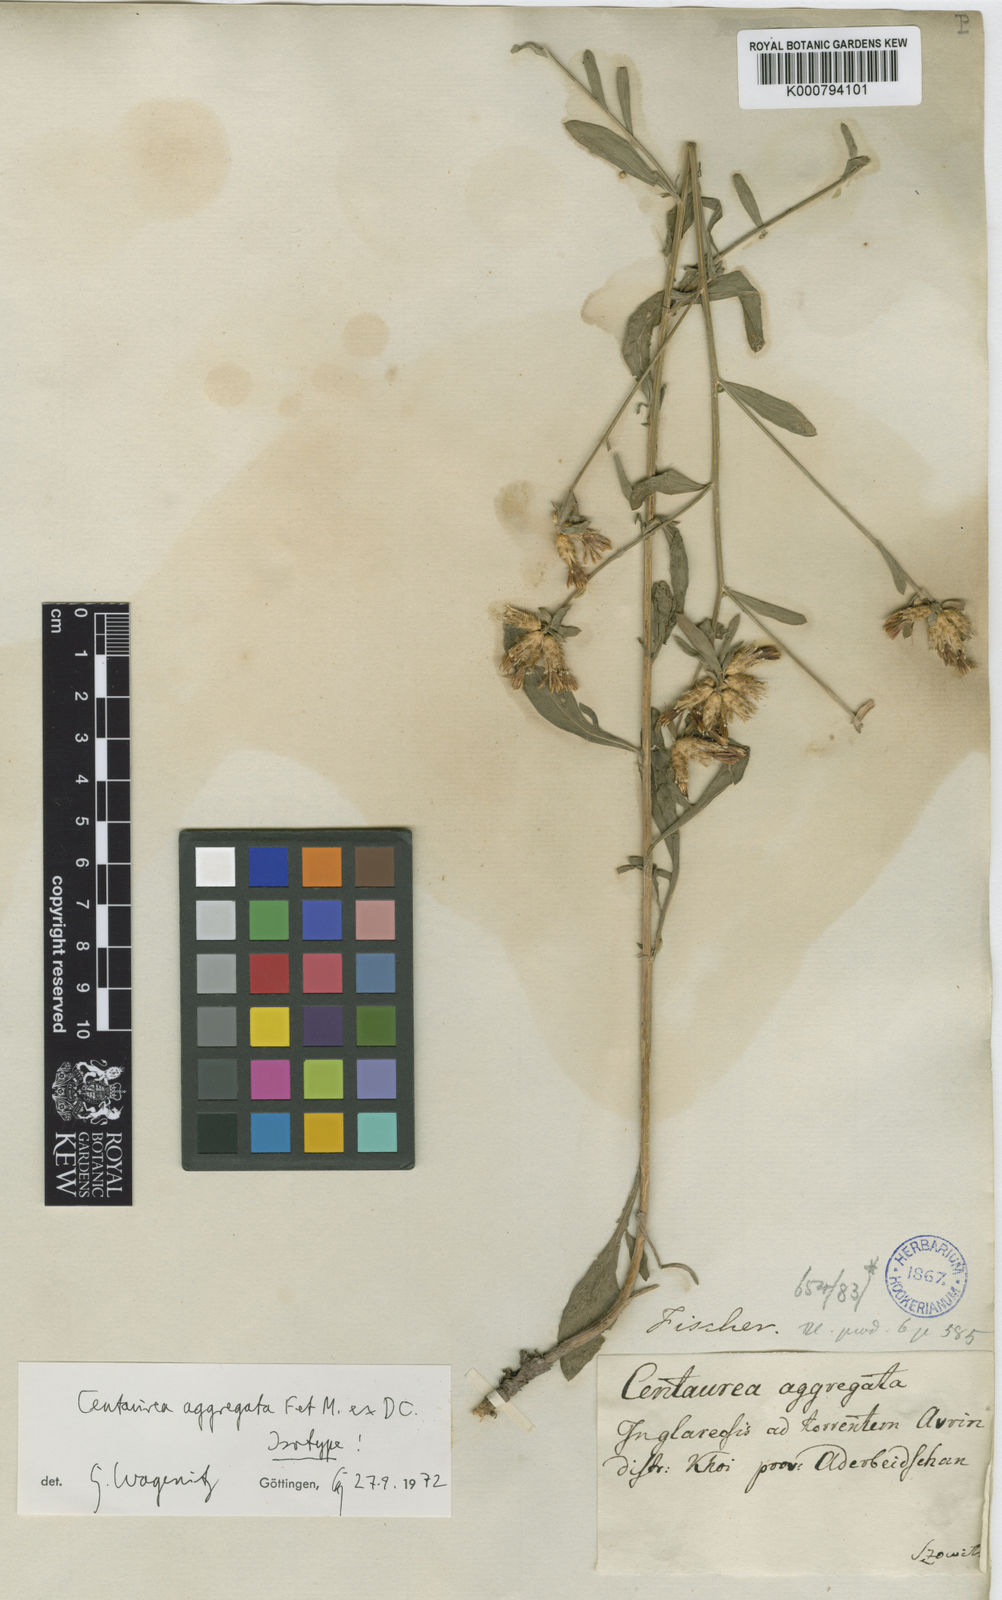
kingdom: Plantae
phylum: Tracheophyta
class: Magnoliopsida
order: Asterales
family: Asteraceae
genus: Centaurea
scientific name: Centaurea aggregata
